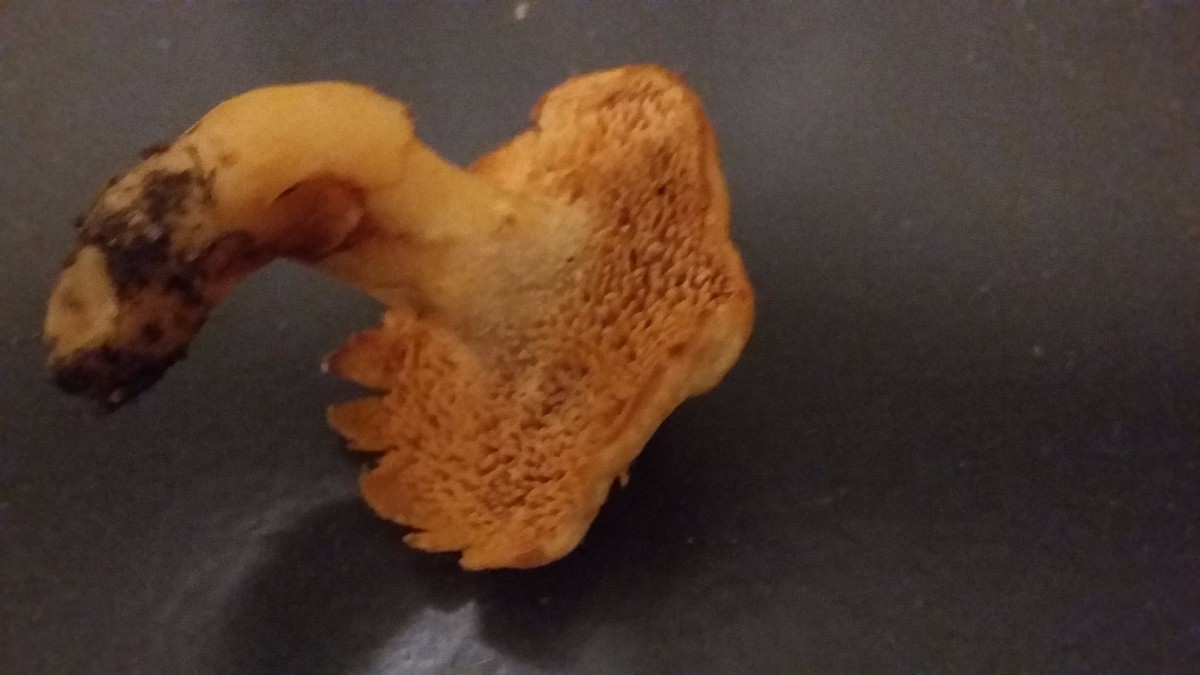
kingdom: Fungi
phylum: Basidiomycota
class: Agaricomycetes
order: Cantharellales
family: Hydnaceae
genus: Hydnum
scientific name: Hydnum
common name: pigsvamp
